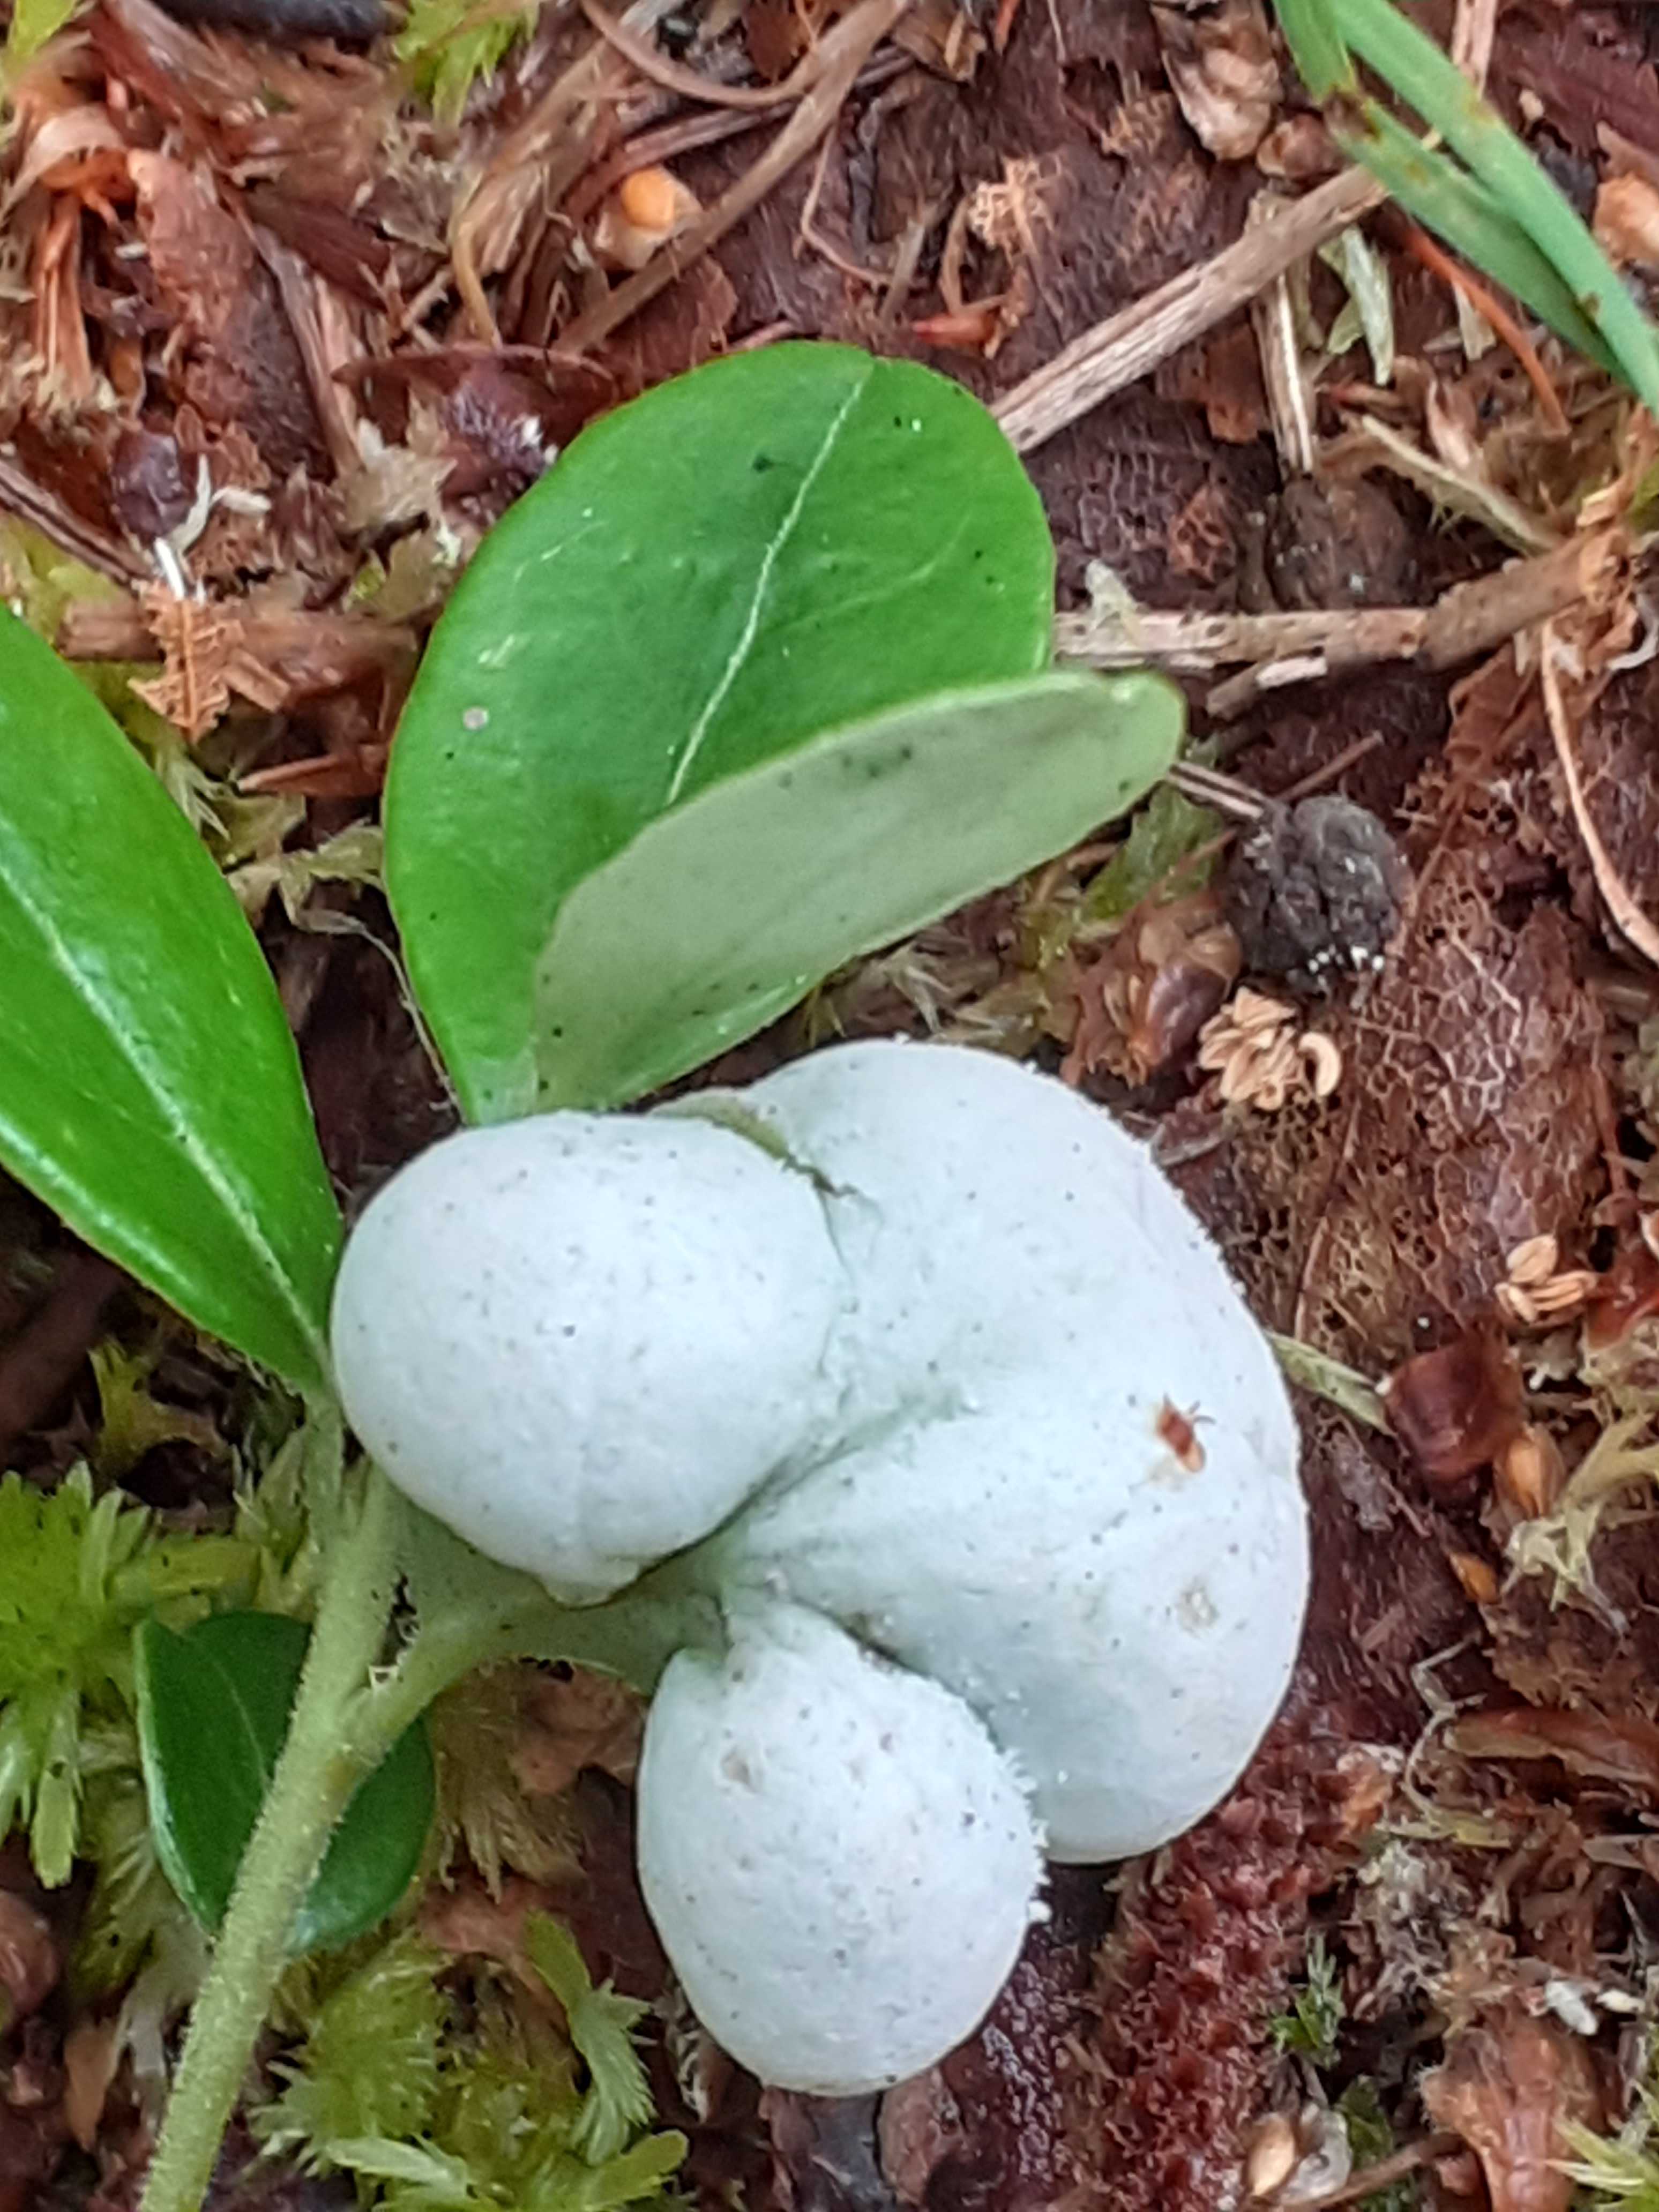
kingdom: Fungi
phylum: Basidiomycota
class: Exobasidiomycetes
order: Exobasidiales
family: Exobasidiaceae
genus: Exobasidium
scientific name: Exobasidium vaccinii
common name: tyttebærblad-bøllesvamp
